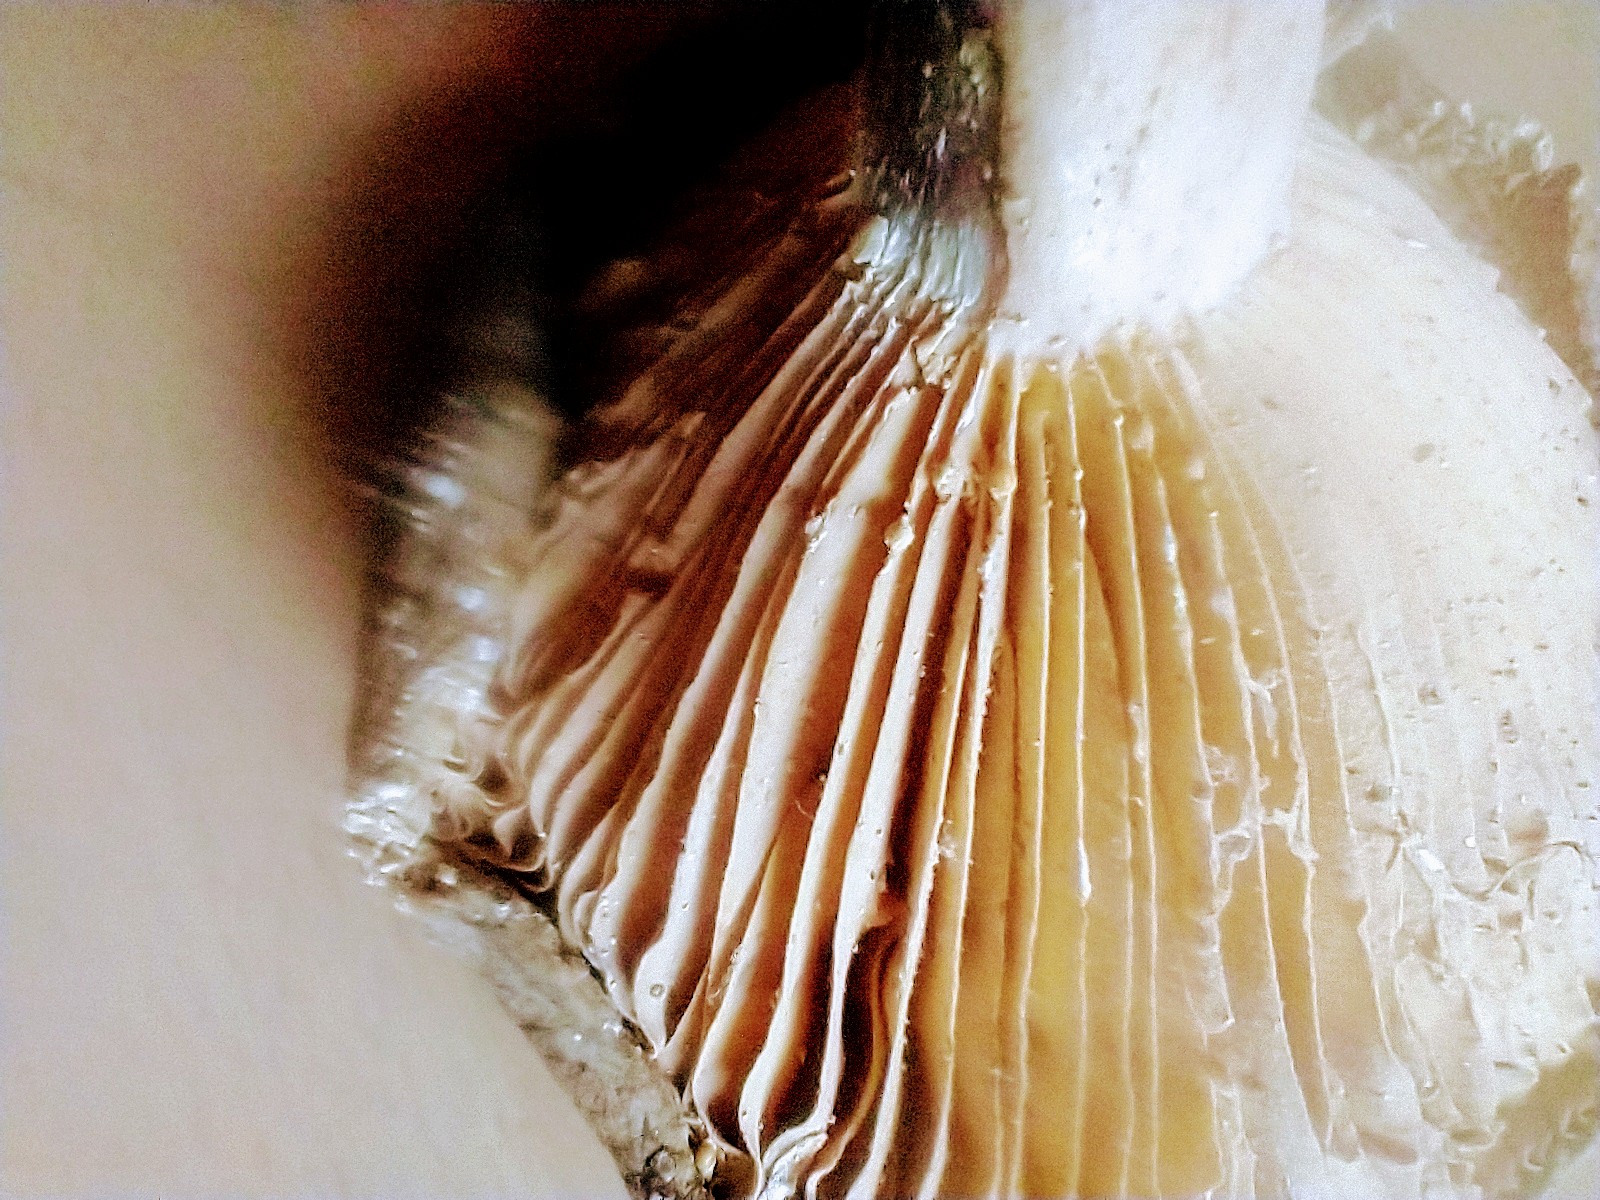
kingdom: Fungi
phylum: Basidiomycota
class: Agaricomycetes
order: Russulales
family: Russulaceae
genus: Lactarius
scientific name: Lactarius pterosporus
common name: vingesporet mælkehat
